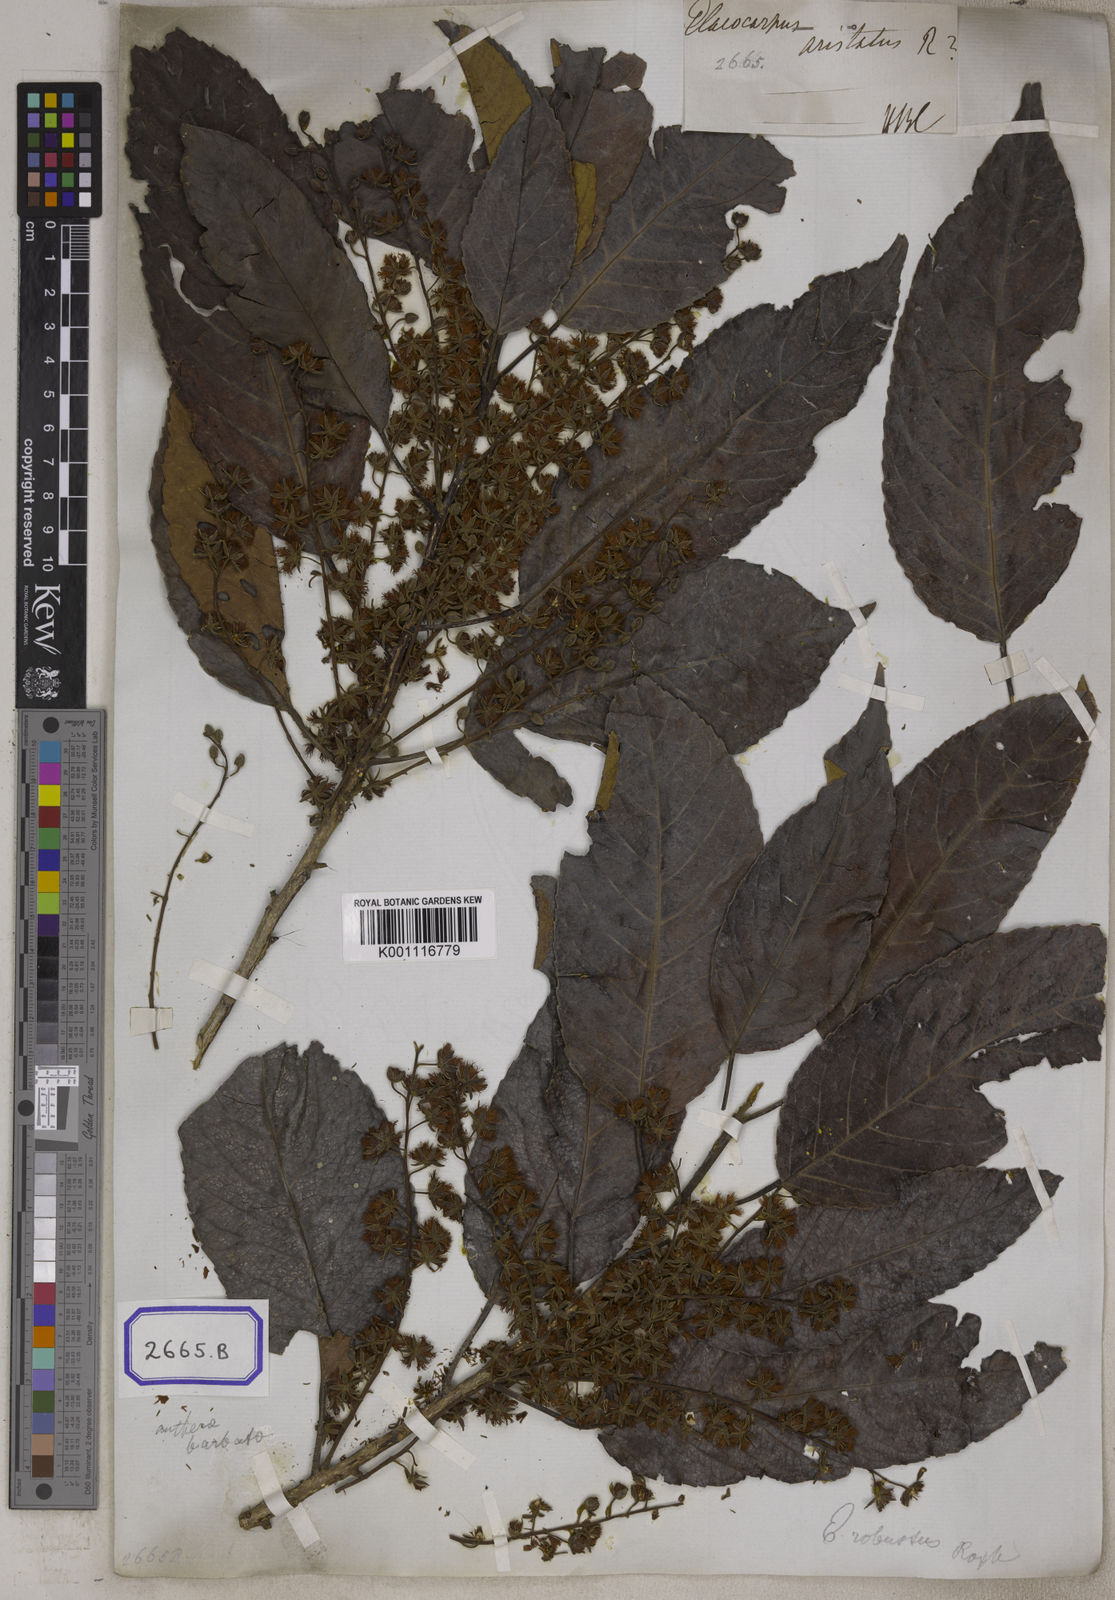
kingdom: Plantae
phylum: Tracheophyta
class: Magnoliopsida
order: Oxalidales
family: Elaeocarpaceae
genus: Elaeocarpus
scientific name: Elaeocarpus
